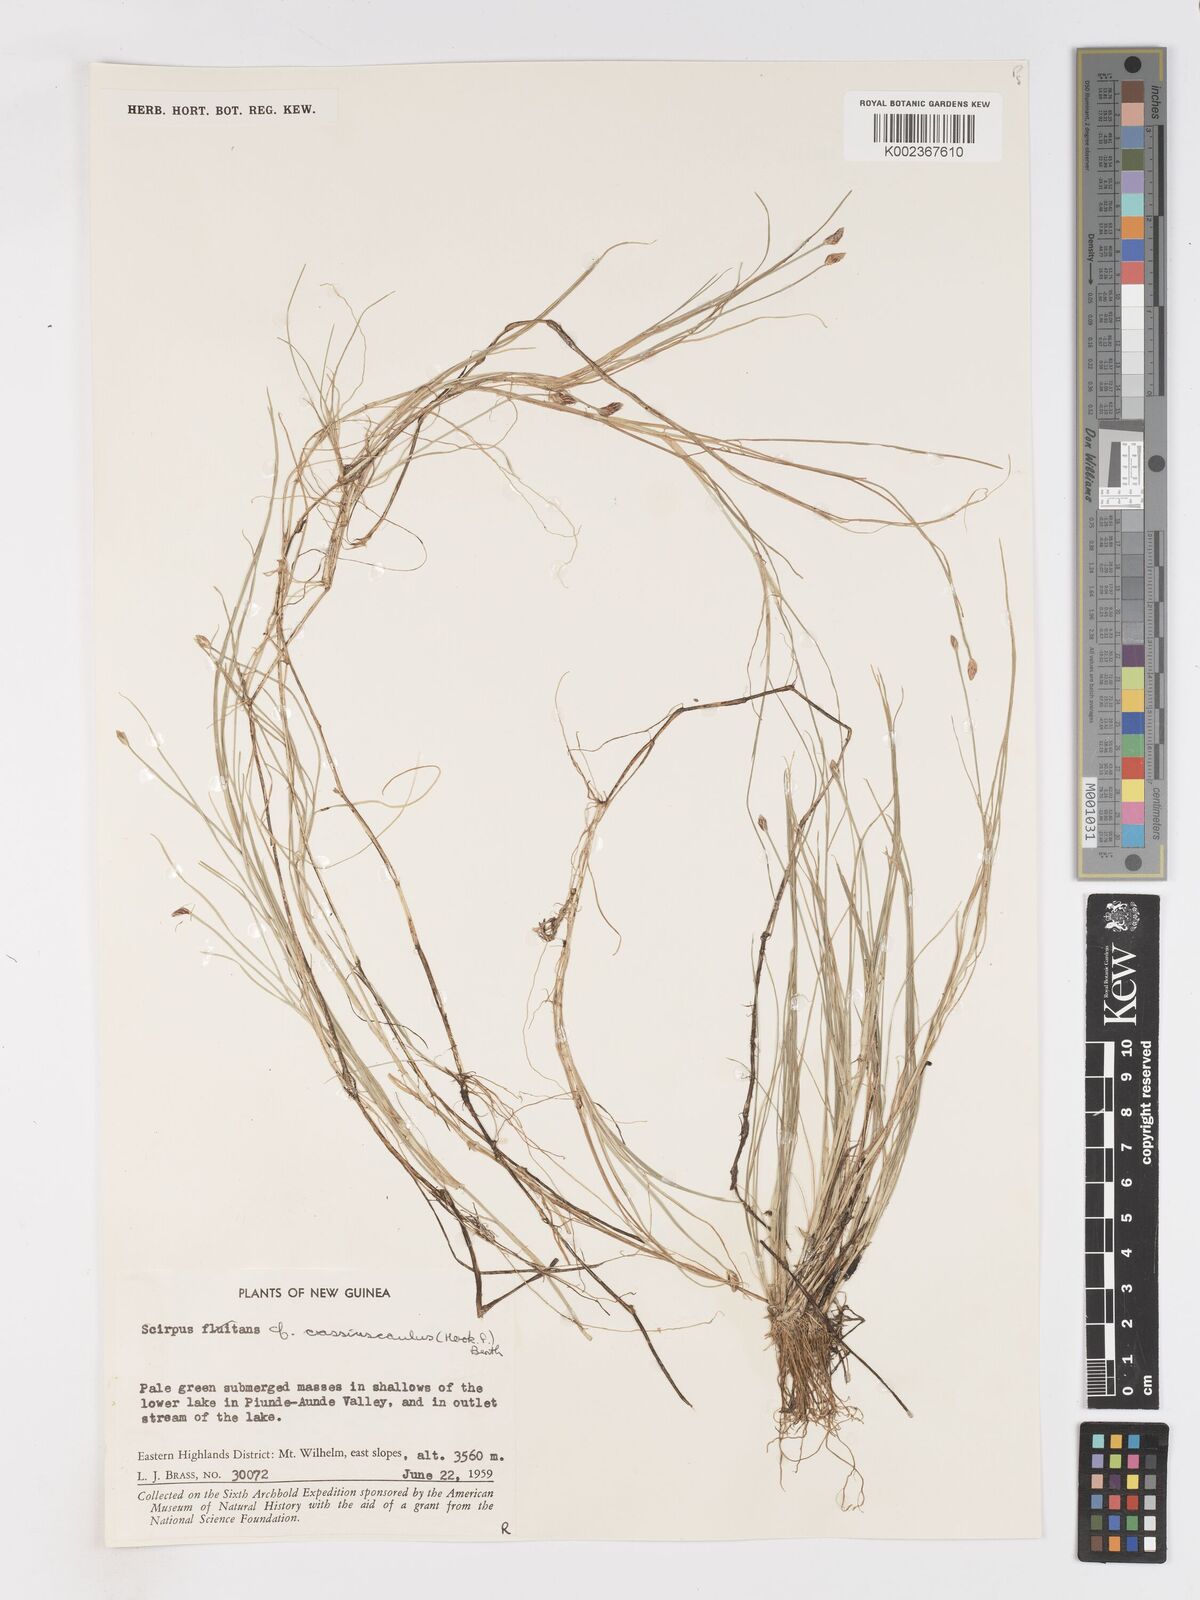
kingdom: Plantae
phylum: Tracheophyta
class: Liliopsida
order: Poales
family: Cyperaceae
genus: Isolepis
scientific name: Isolepis crassiuscula
